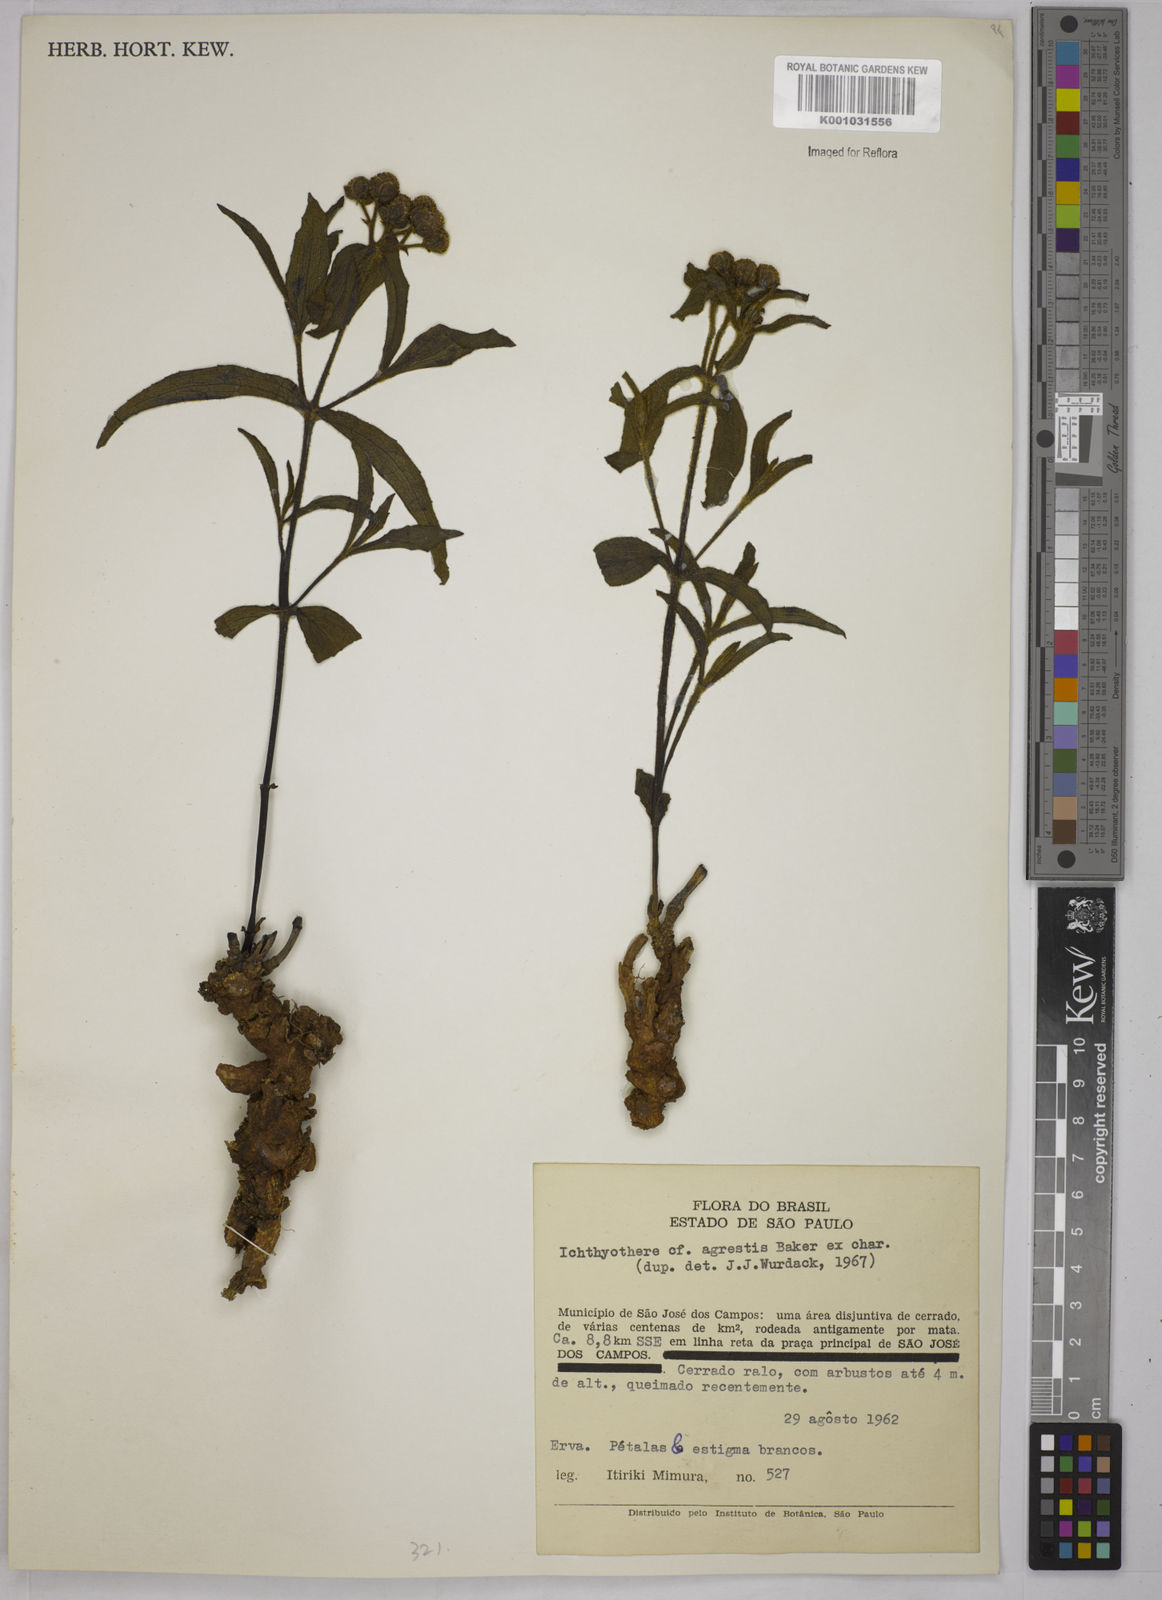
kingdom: Plantae
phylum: Tracheophyta
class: Magnoliopsida
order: Asterales
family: Asteraceae
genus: Ichthyothere
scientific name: Ichthyothere integrifolia
